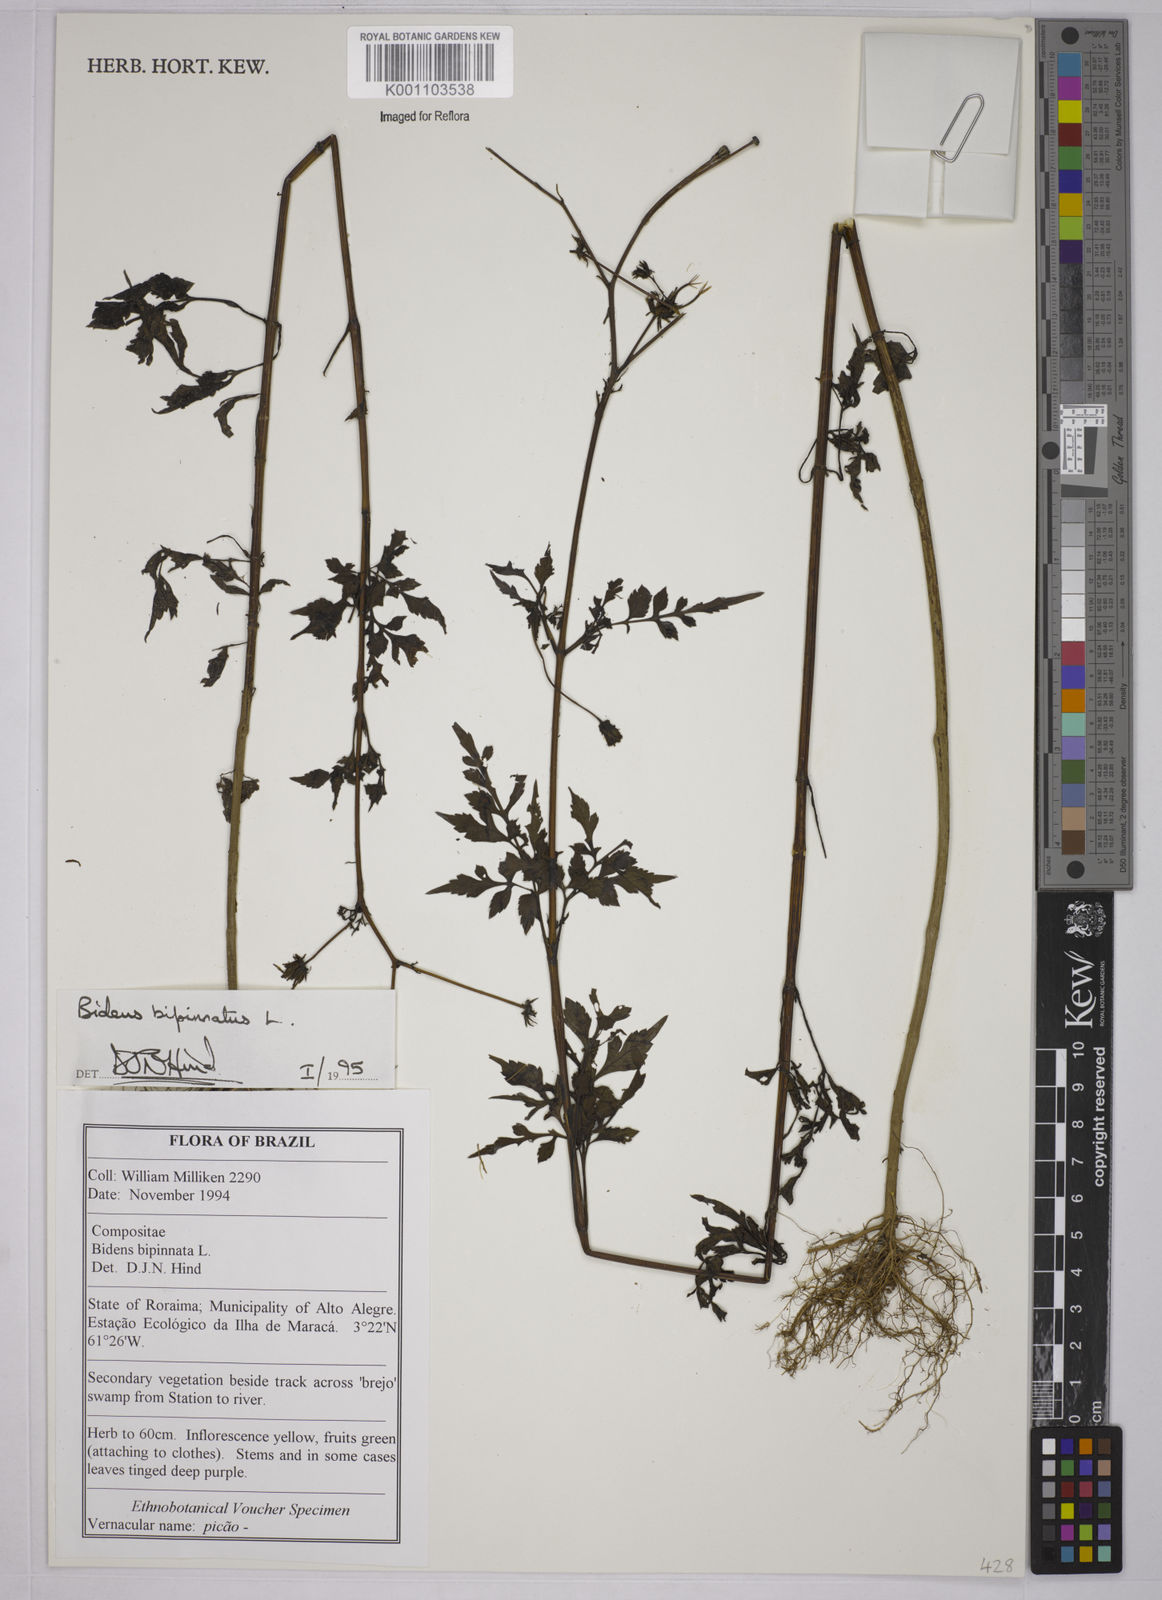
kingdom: Plantae
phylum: Tracheophyta
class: Magnoliopsida
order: Asterales
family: Asteraceae
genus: Bidens
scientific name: Bidens bipinnata
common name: Spanish-needles
